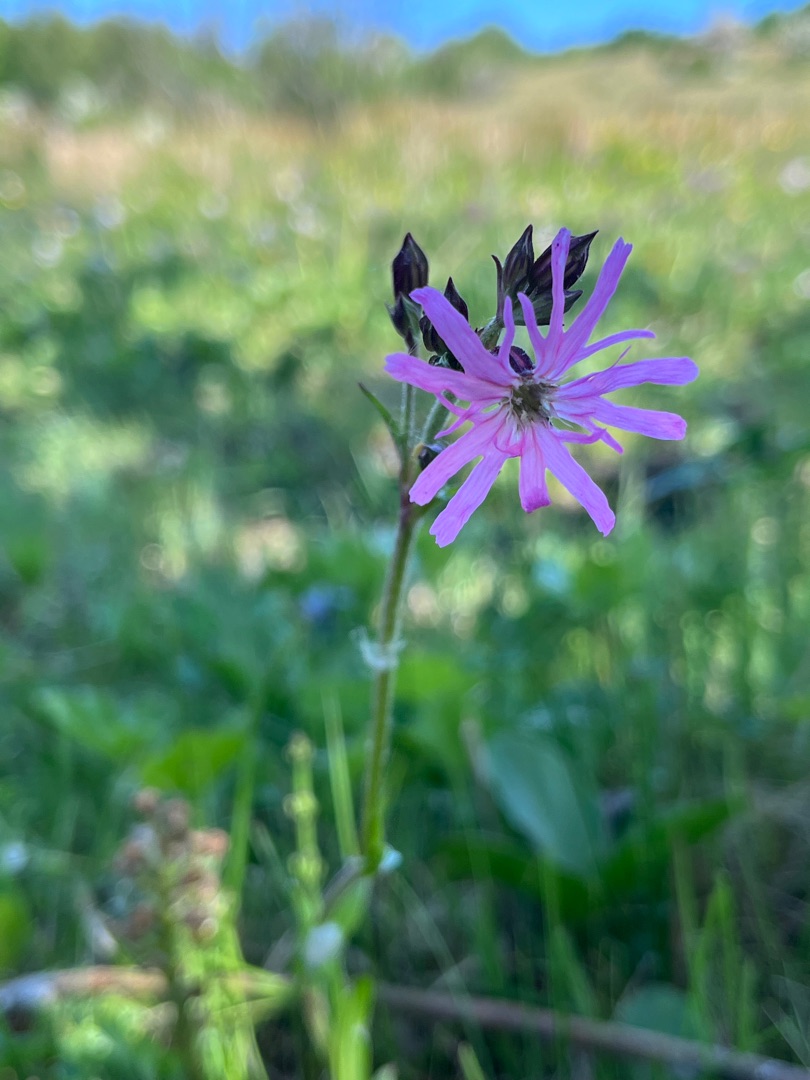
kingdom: Plantae
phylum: Tracheophyta
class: Magnoliopsida
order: Caryophyllales
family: Caryophyllaceae
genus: Silene
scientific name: Silene flos-cuculi
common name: Trævlekrone
